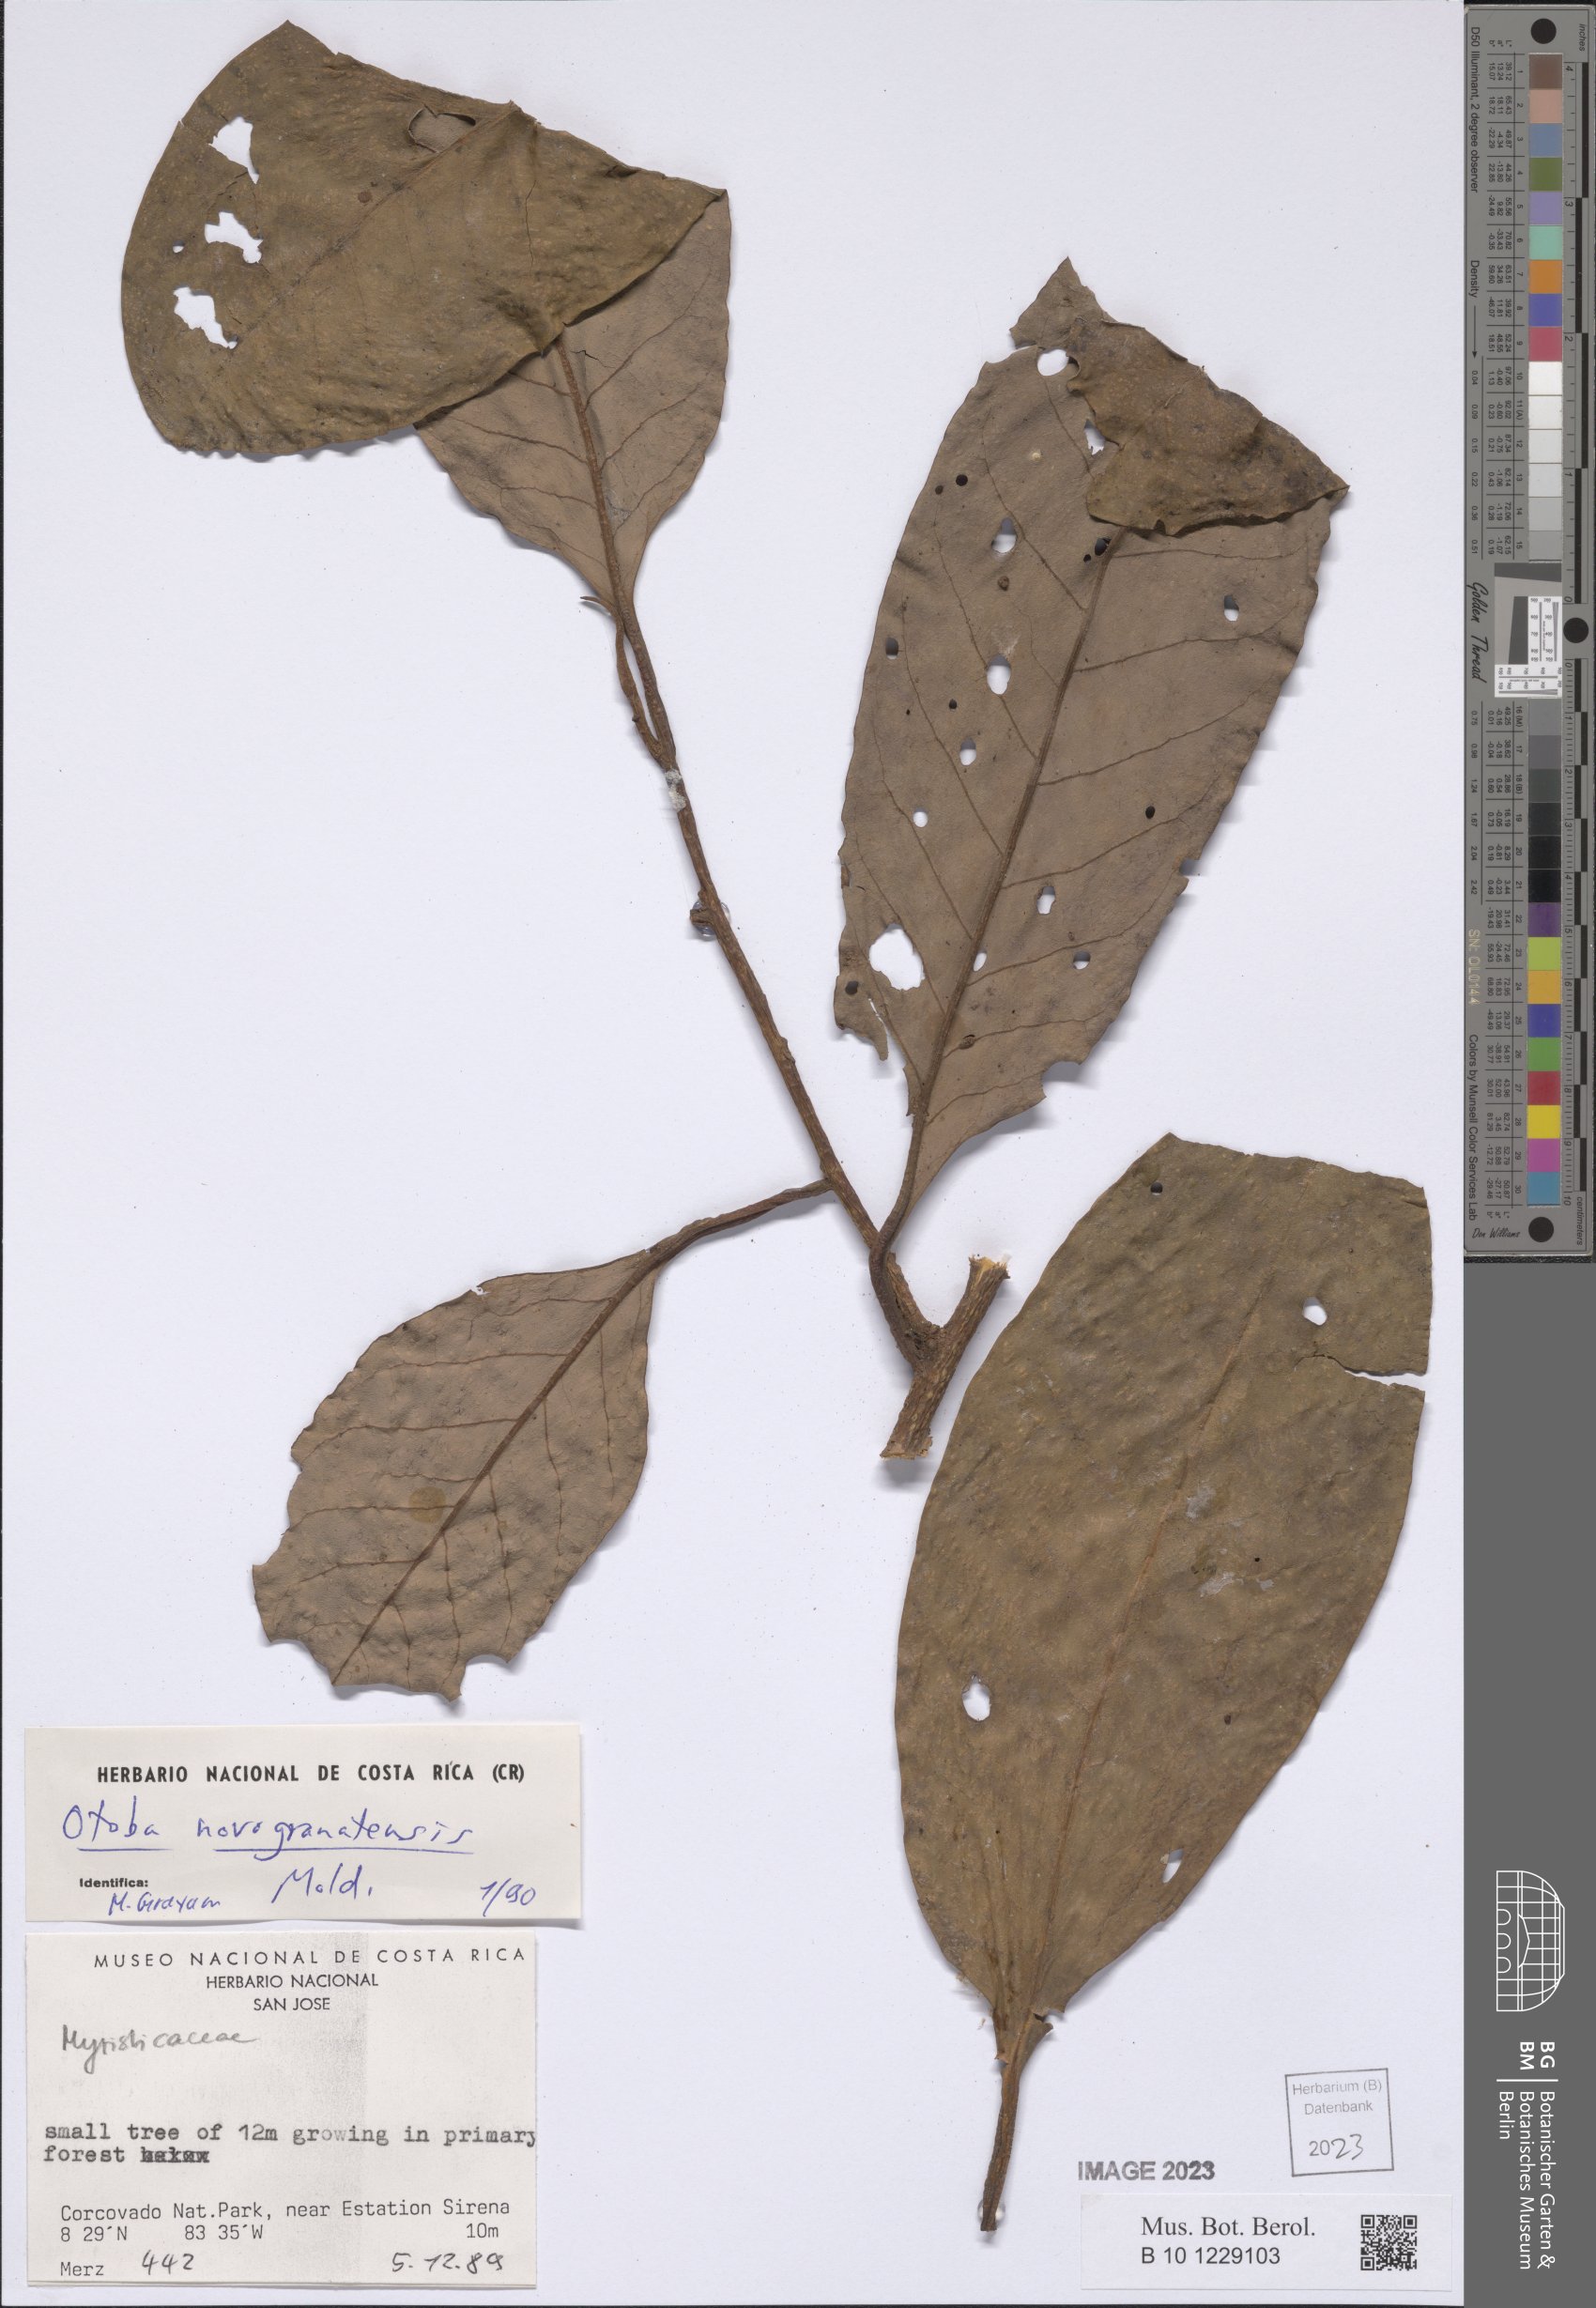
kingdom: Plantae
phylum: Tracheophyta
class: Magnoliopsida
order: Magnoliales
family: Myristicaceae
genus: Otoba
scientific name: Otoba novogranatensis
